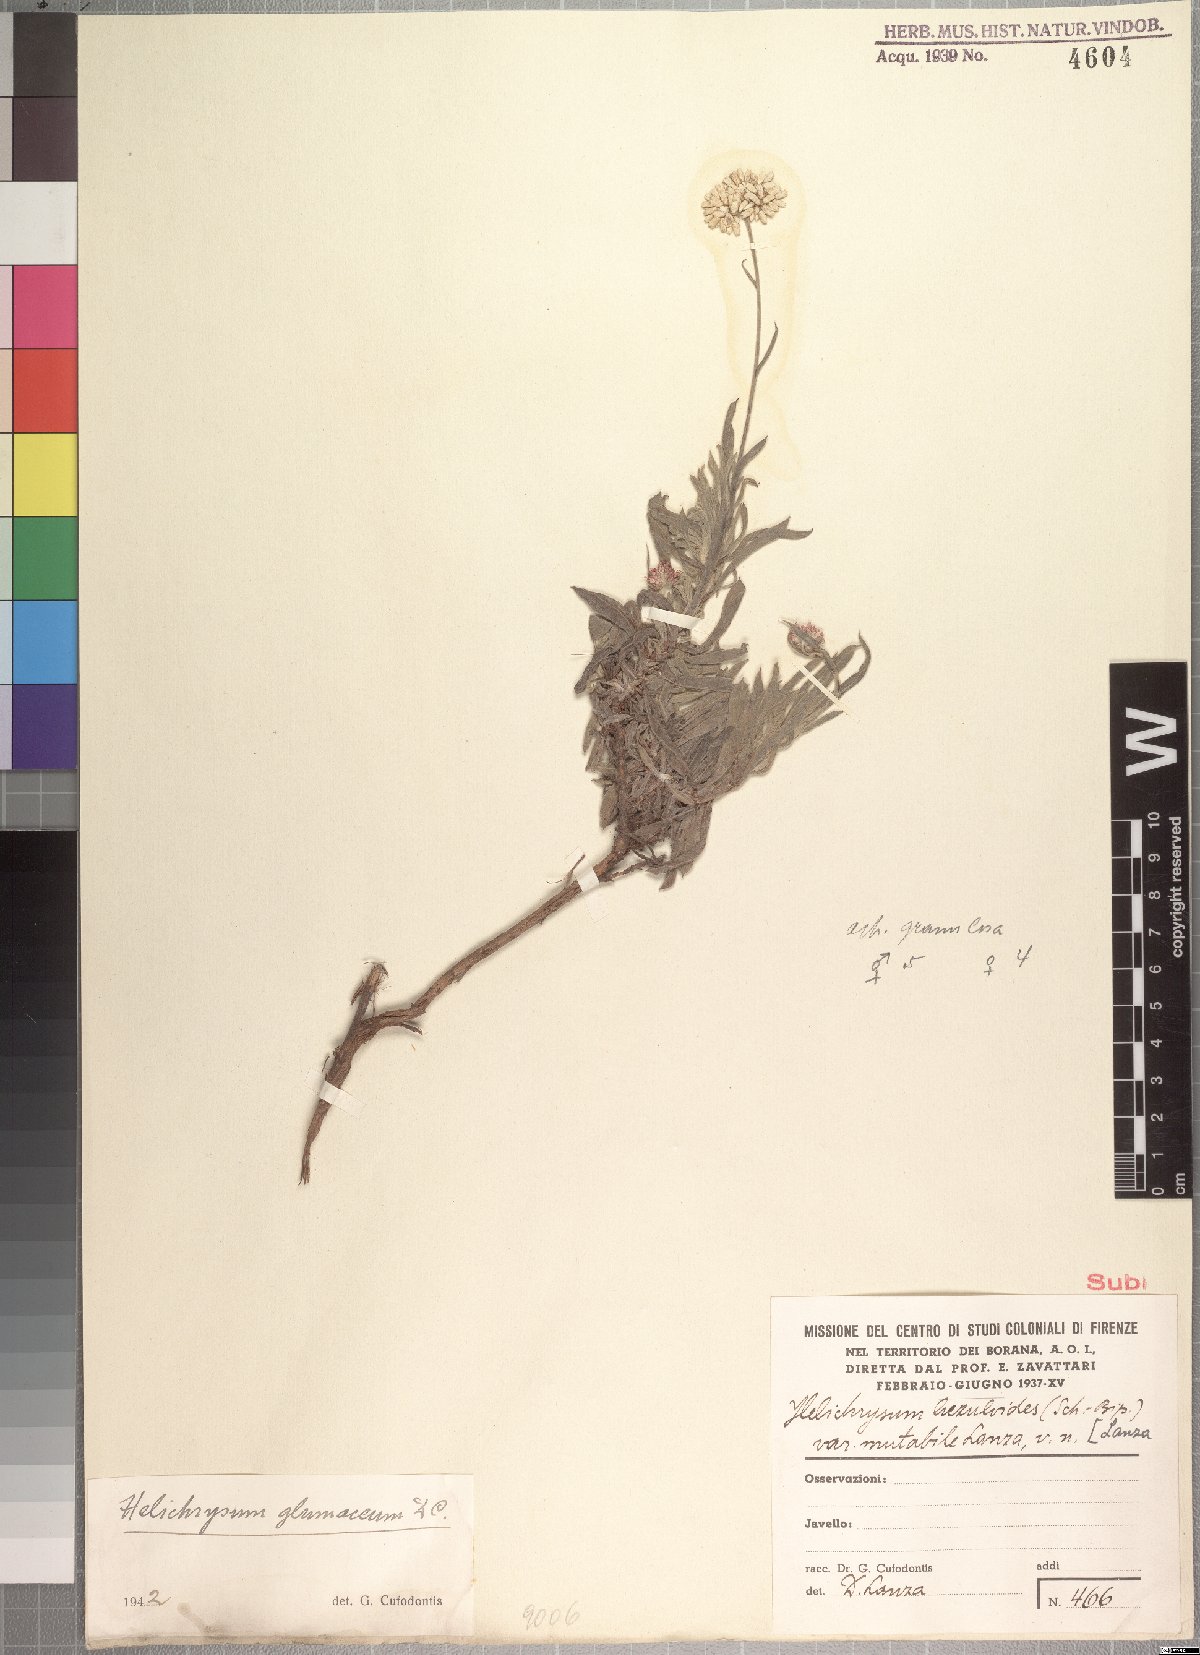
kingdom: Plantae
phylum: Tracheophyta
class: Magnoliopsida
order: Asterales
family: Asteraceae
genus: Helichrysum
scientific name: Helichrysum glumaceum
